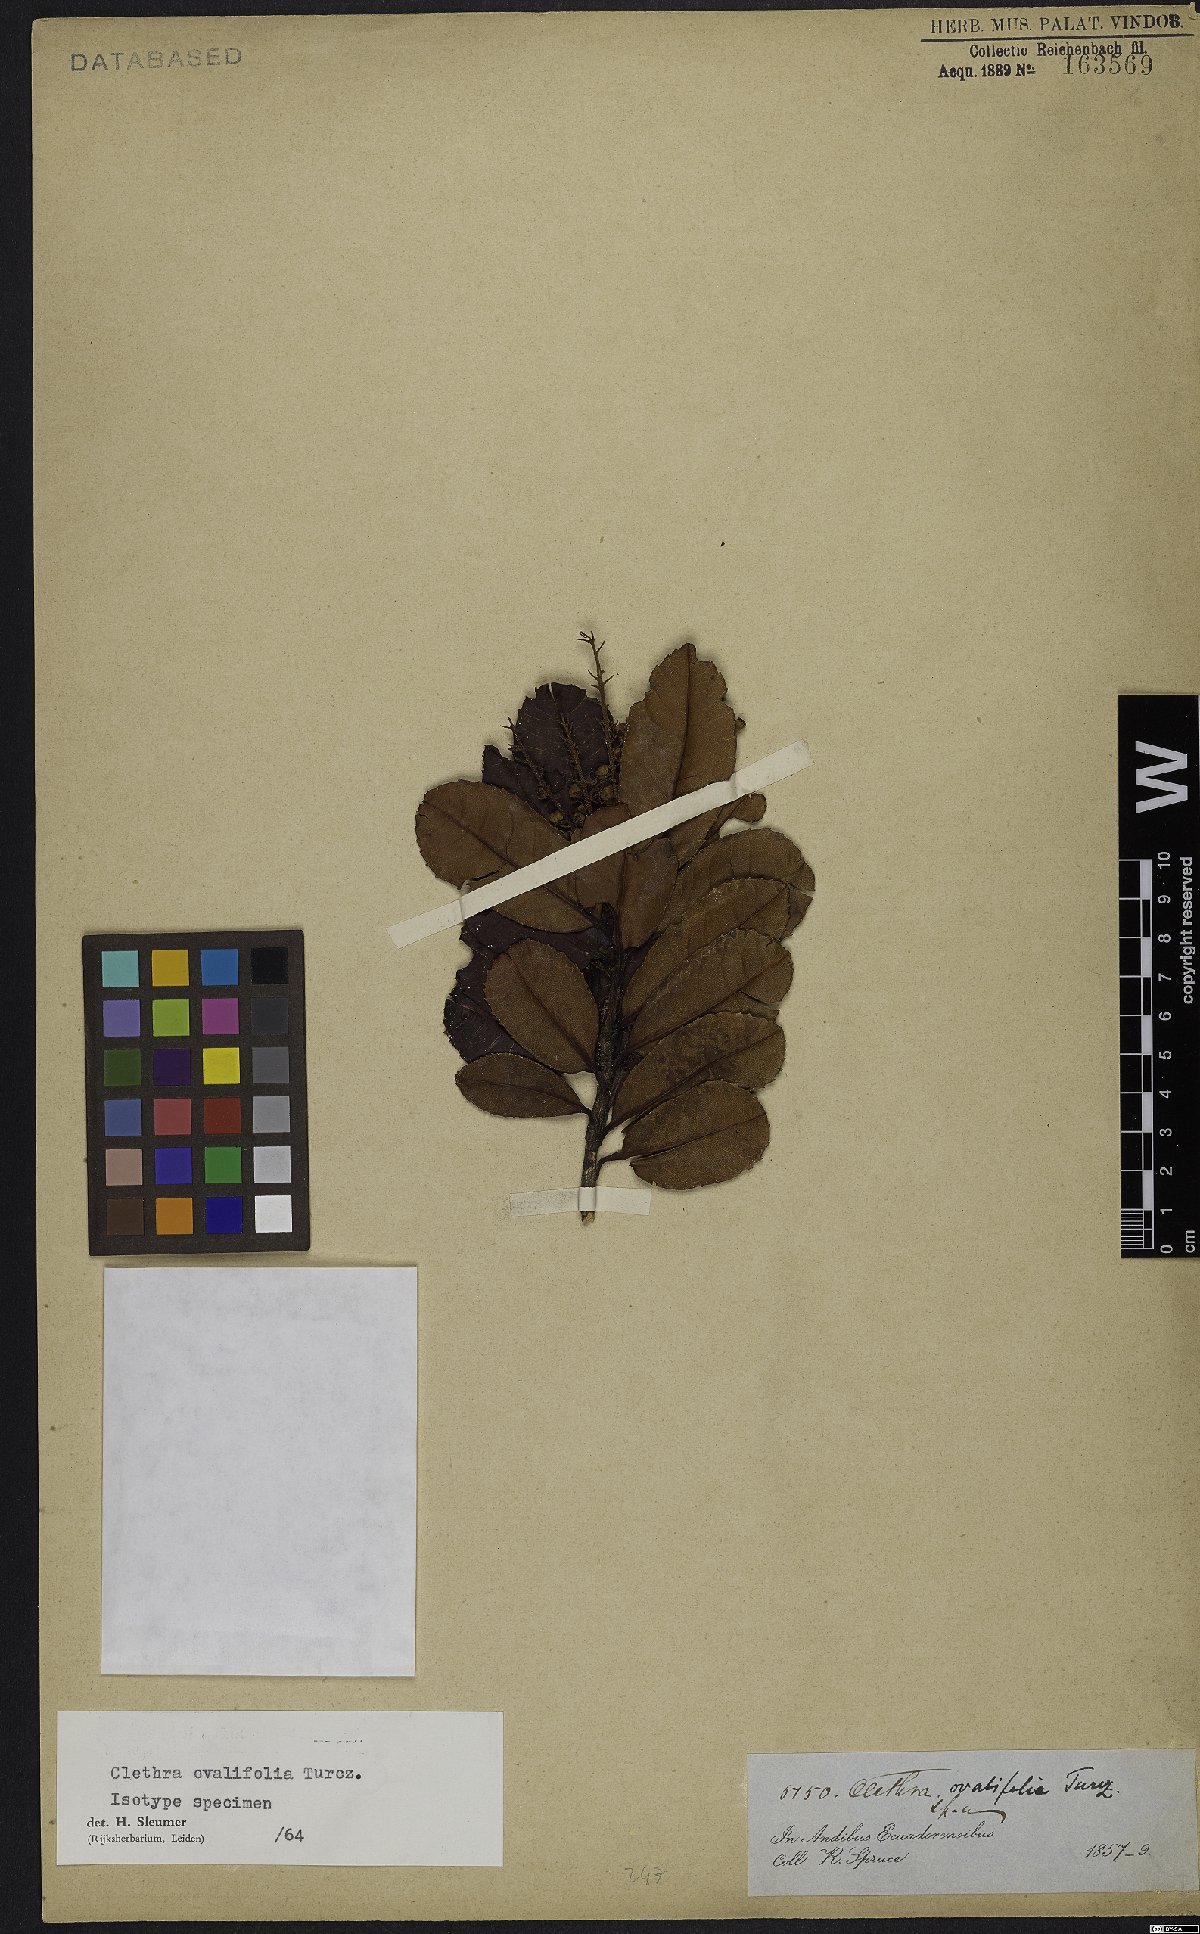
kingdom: Plantae
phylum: Tracheophyta
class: Magnoliopsida
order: Ericales
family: Clethraceae
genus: Clethra
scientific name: Clethra ovalifolia
